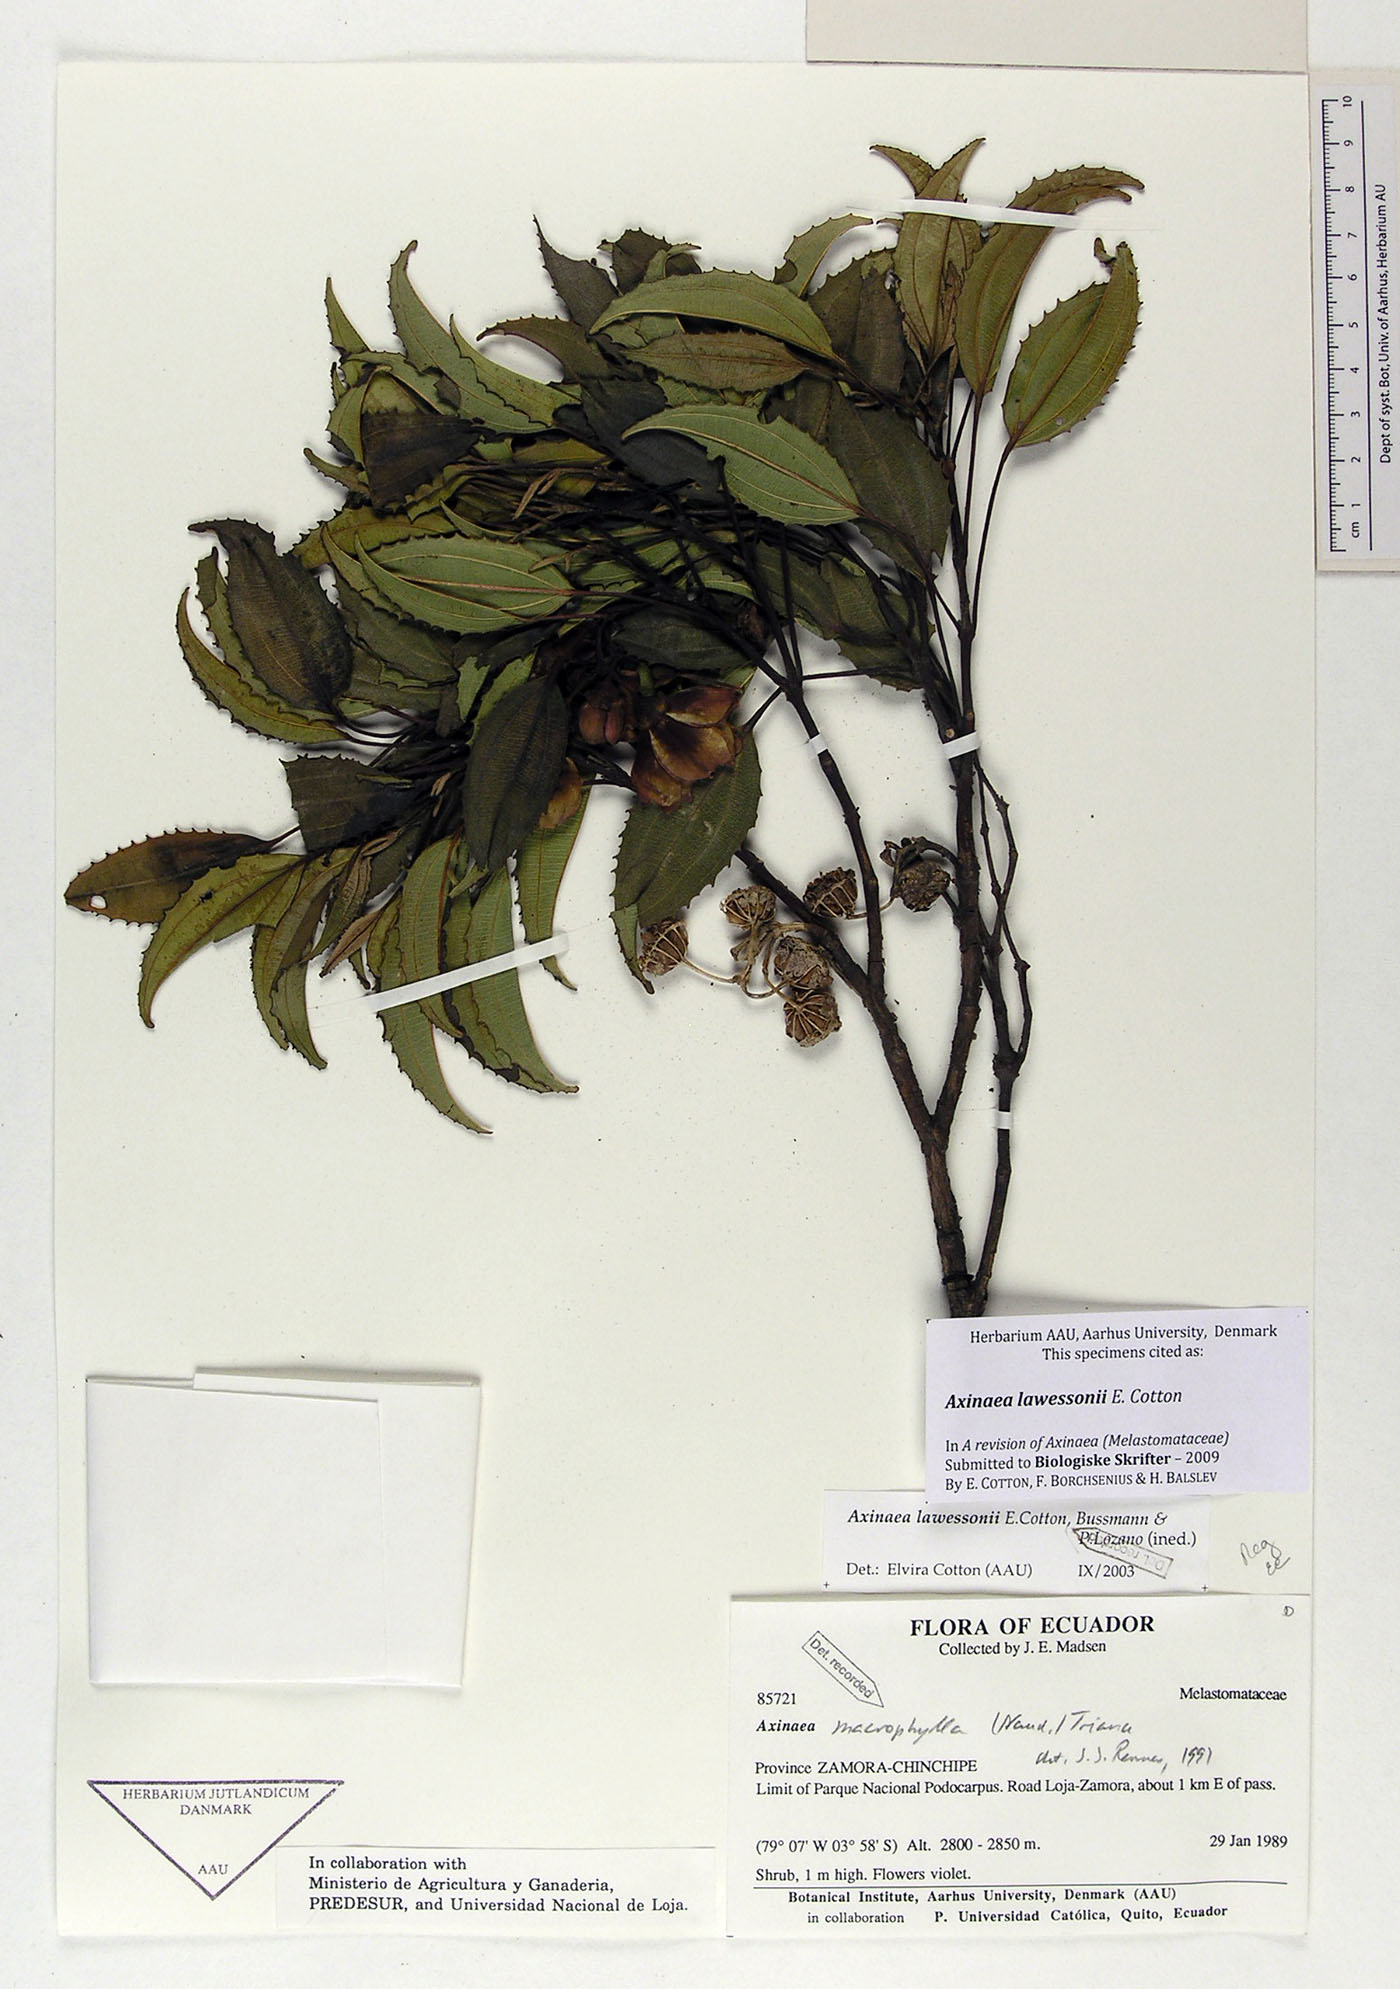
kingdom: Plantae
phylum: Tracheophyta
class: Magnoliopsida
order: Myrtales
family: Melastomataceae
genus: Axinaea
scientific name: Axinaea lawessonii
